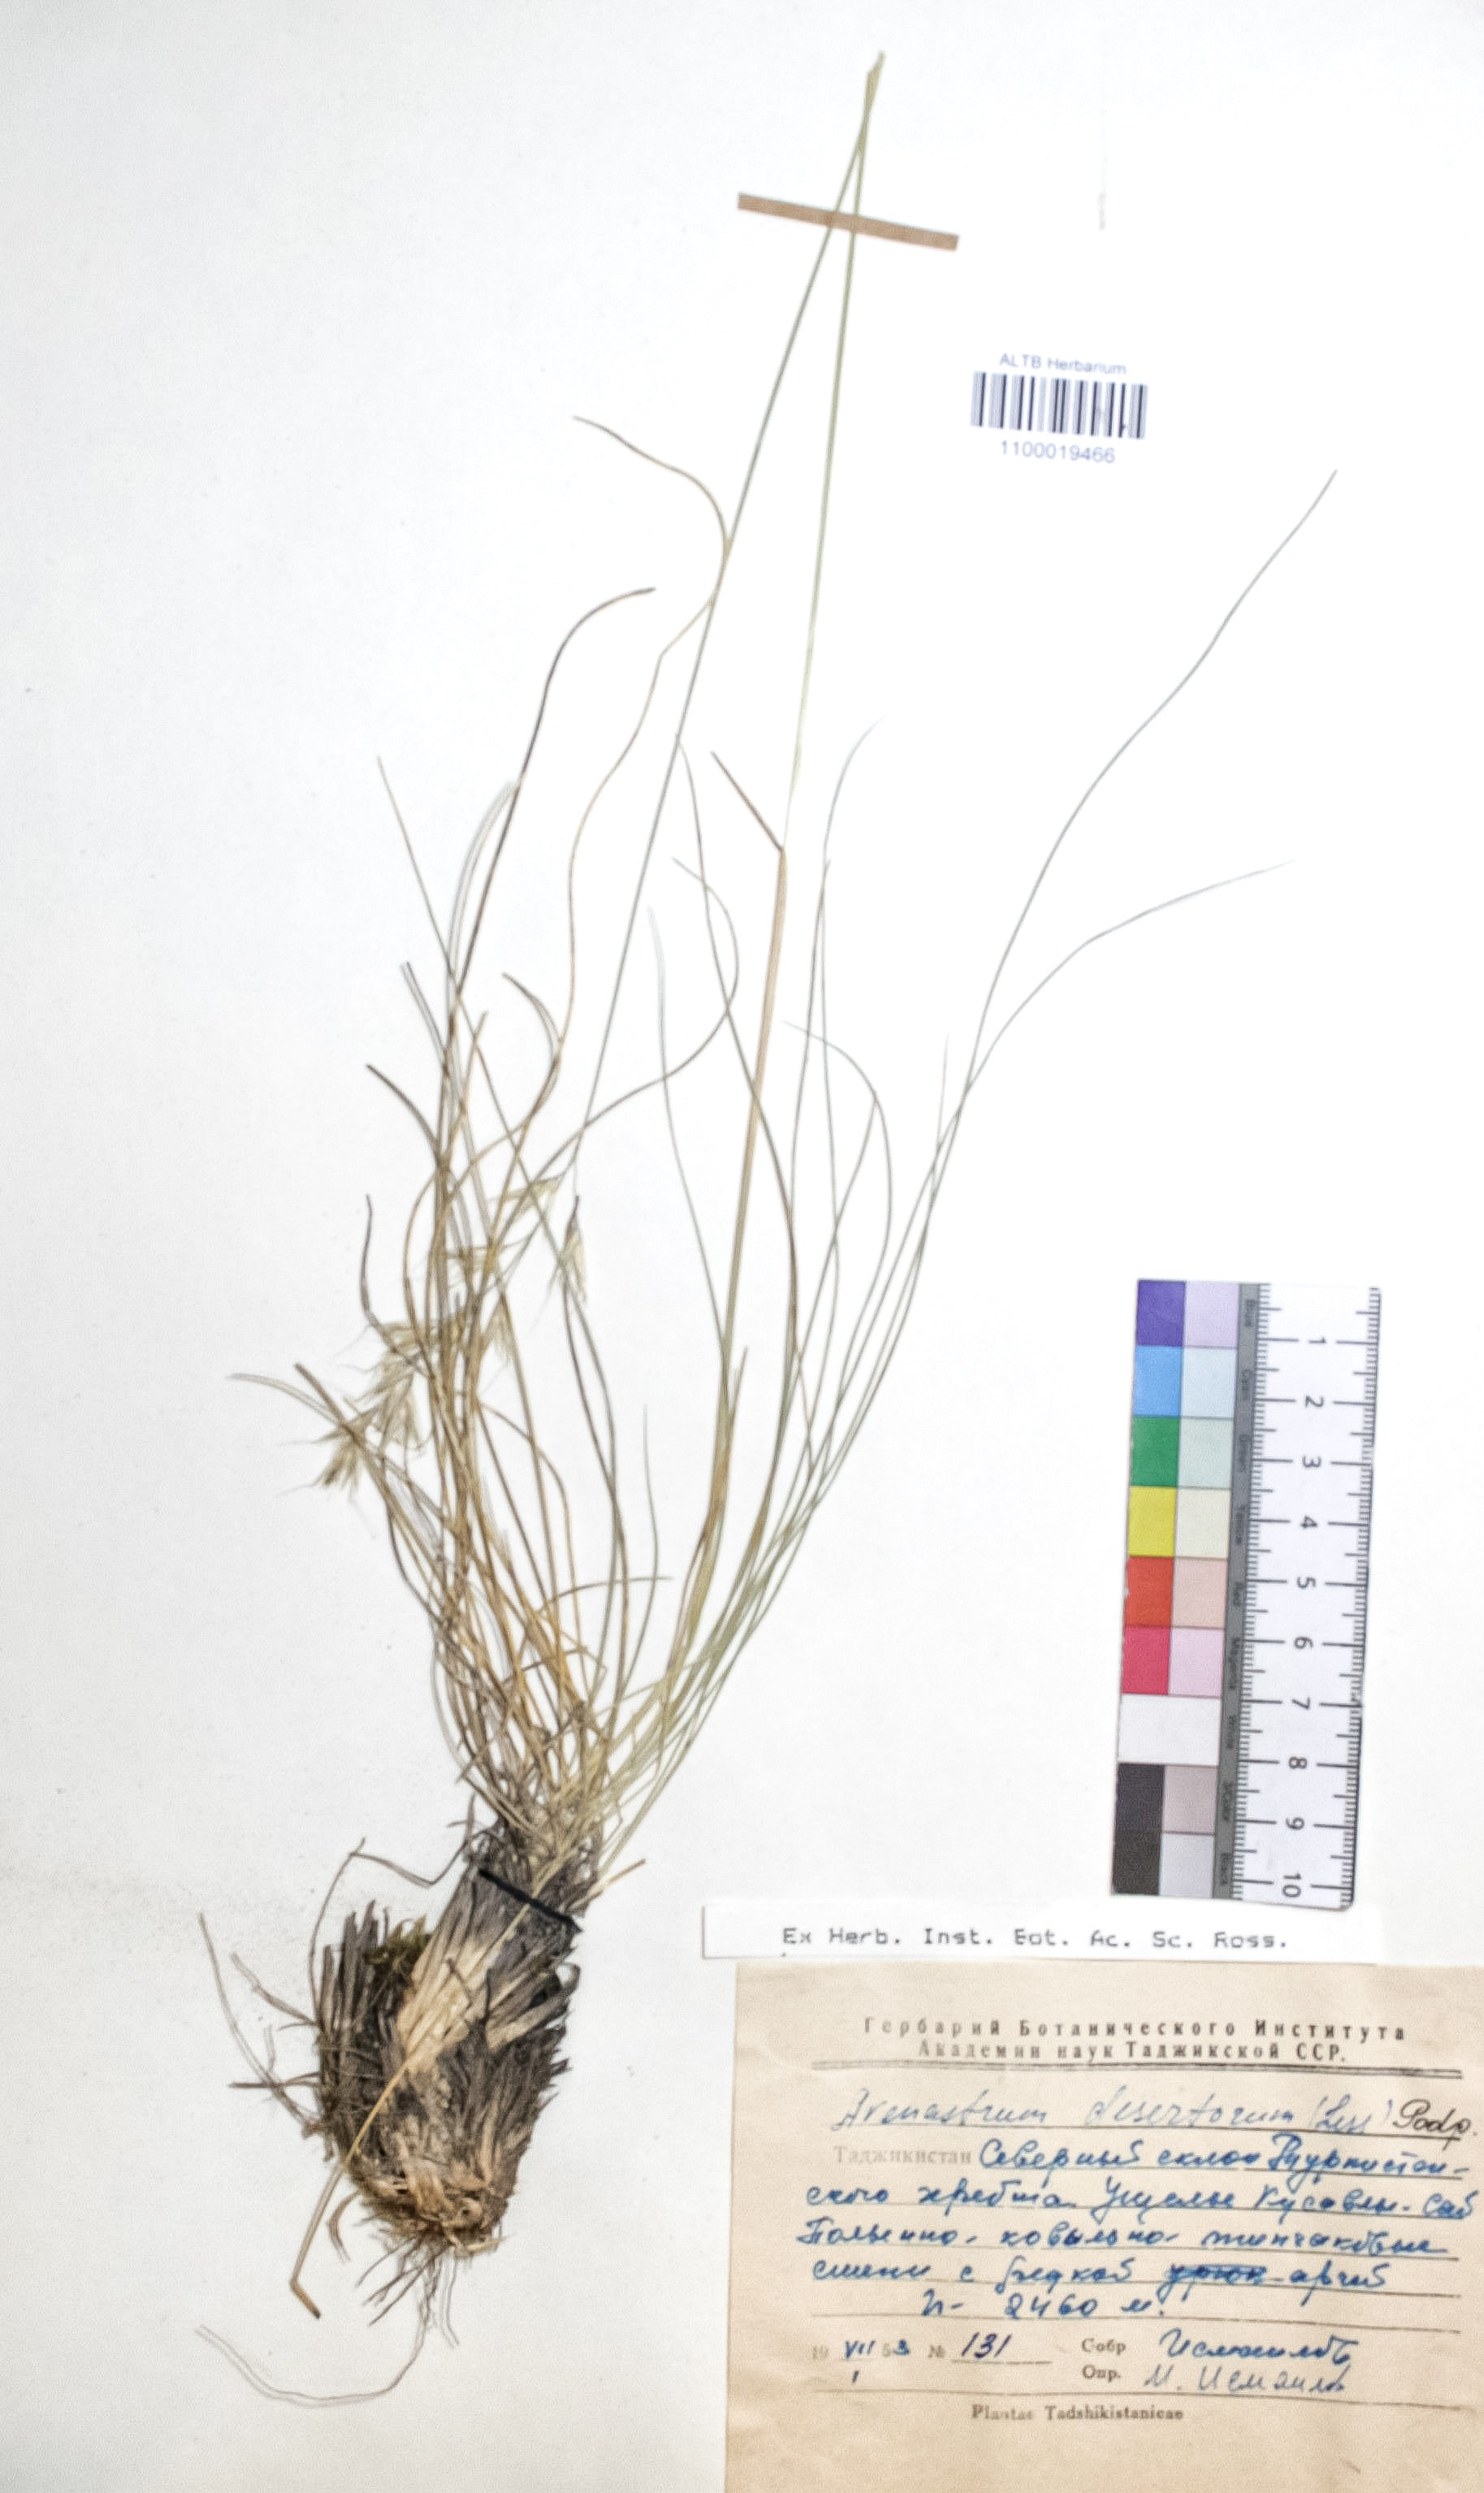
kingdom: Plantae
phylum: Tracheophyta
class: Liliopsida
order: Poales
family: Poaceae
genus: Helictotrichon
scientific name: Helictotrichon desertorum
